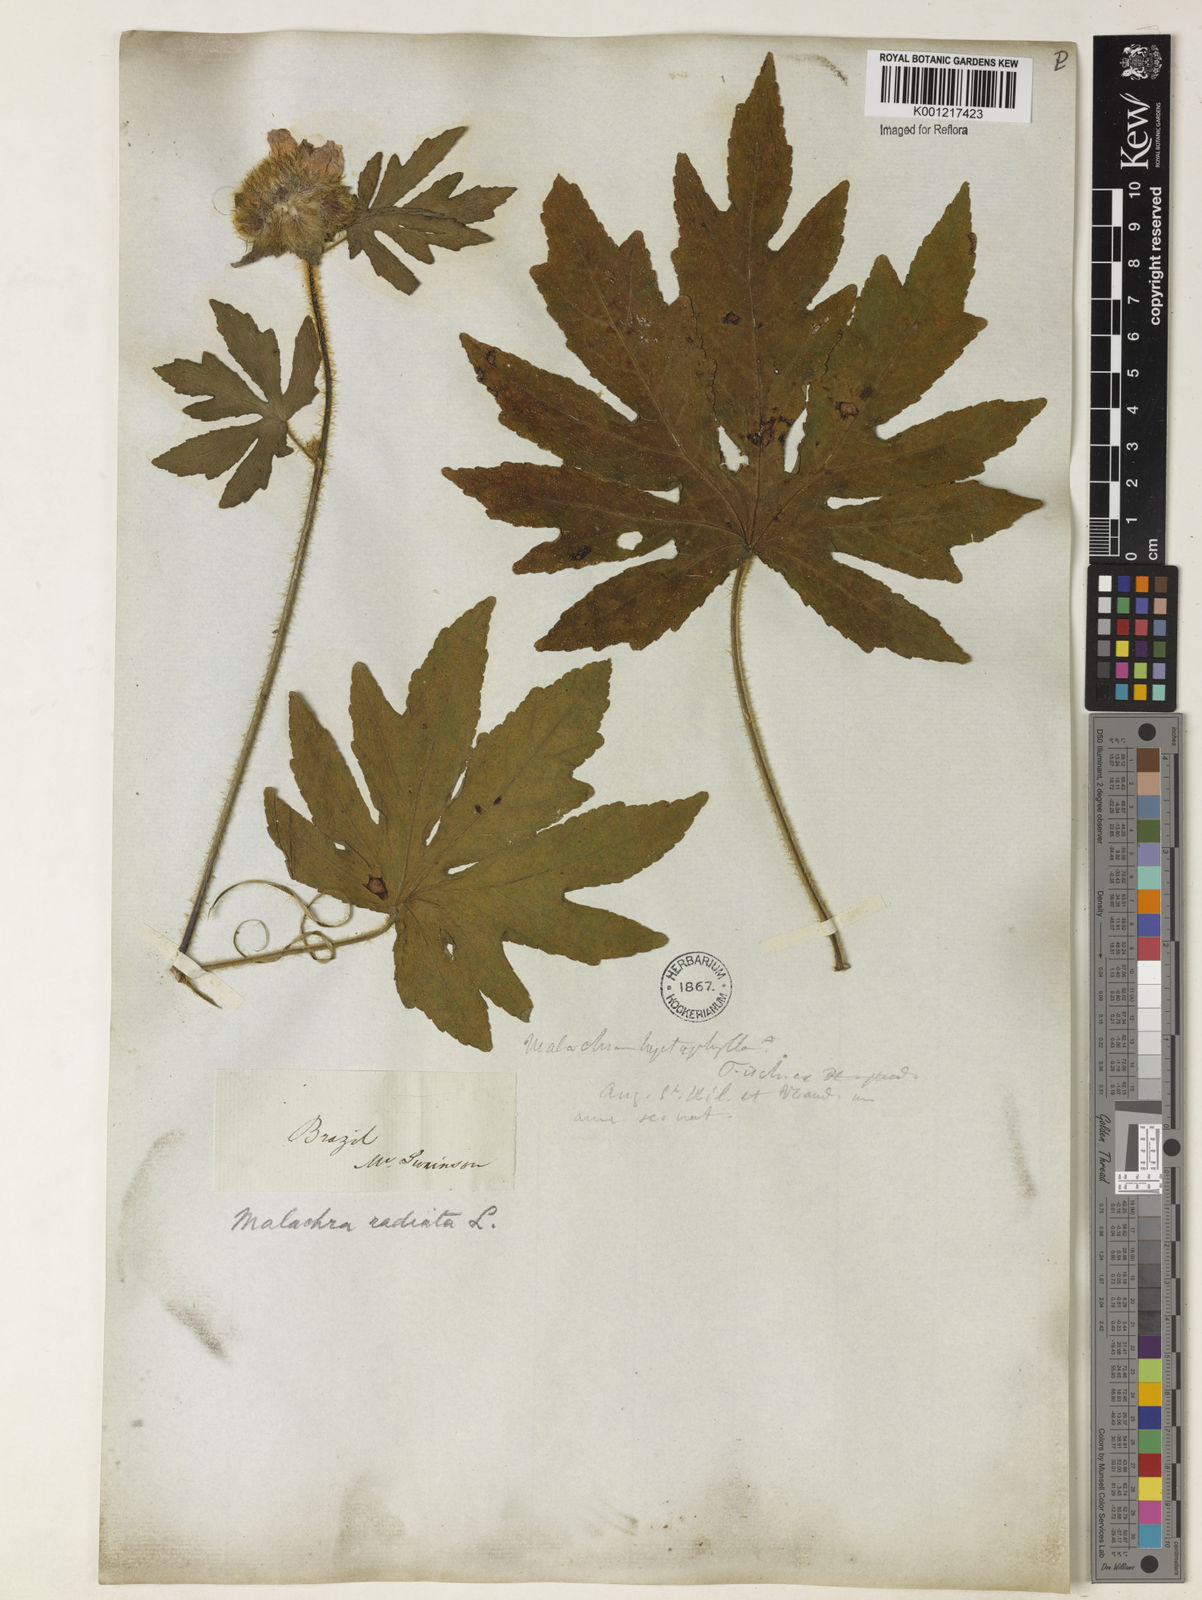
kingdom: Plantae
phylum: Tracheophyta
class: Magnoliopsida
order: Malvales
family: Malvaceae
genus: Malachra
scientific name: Malachra radiata
